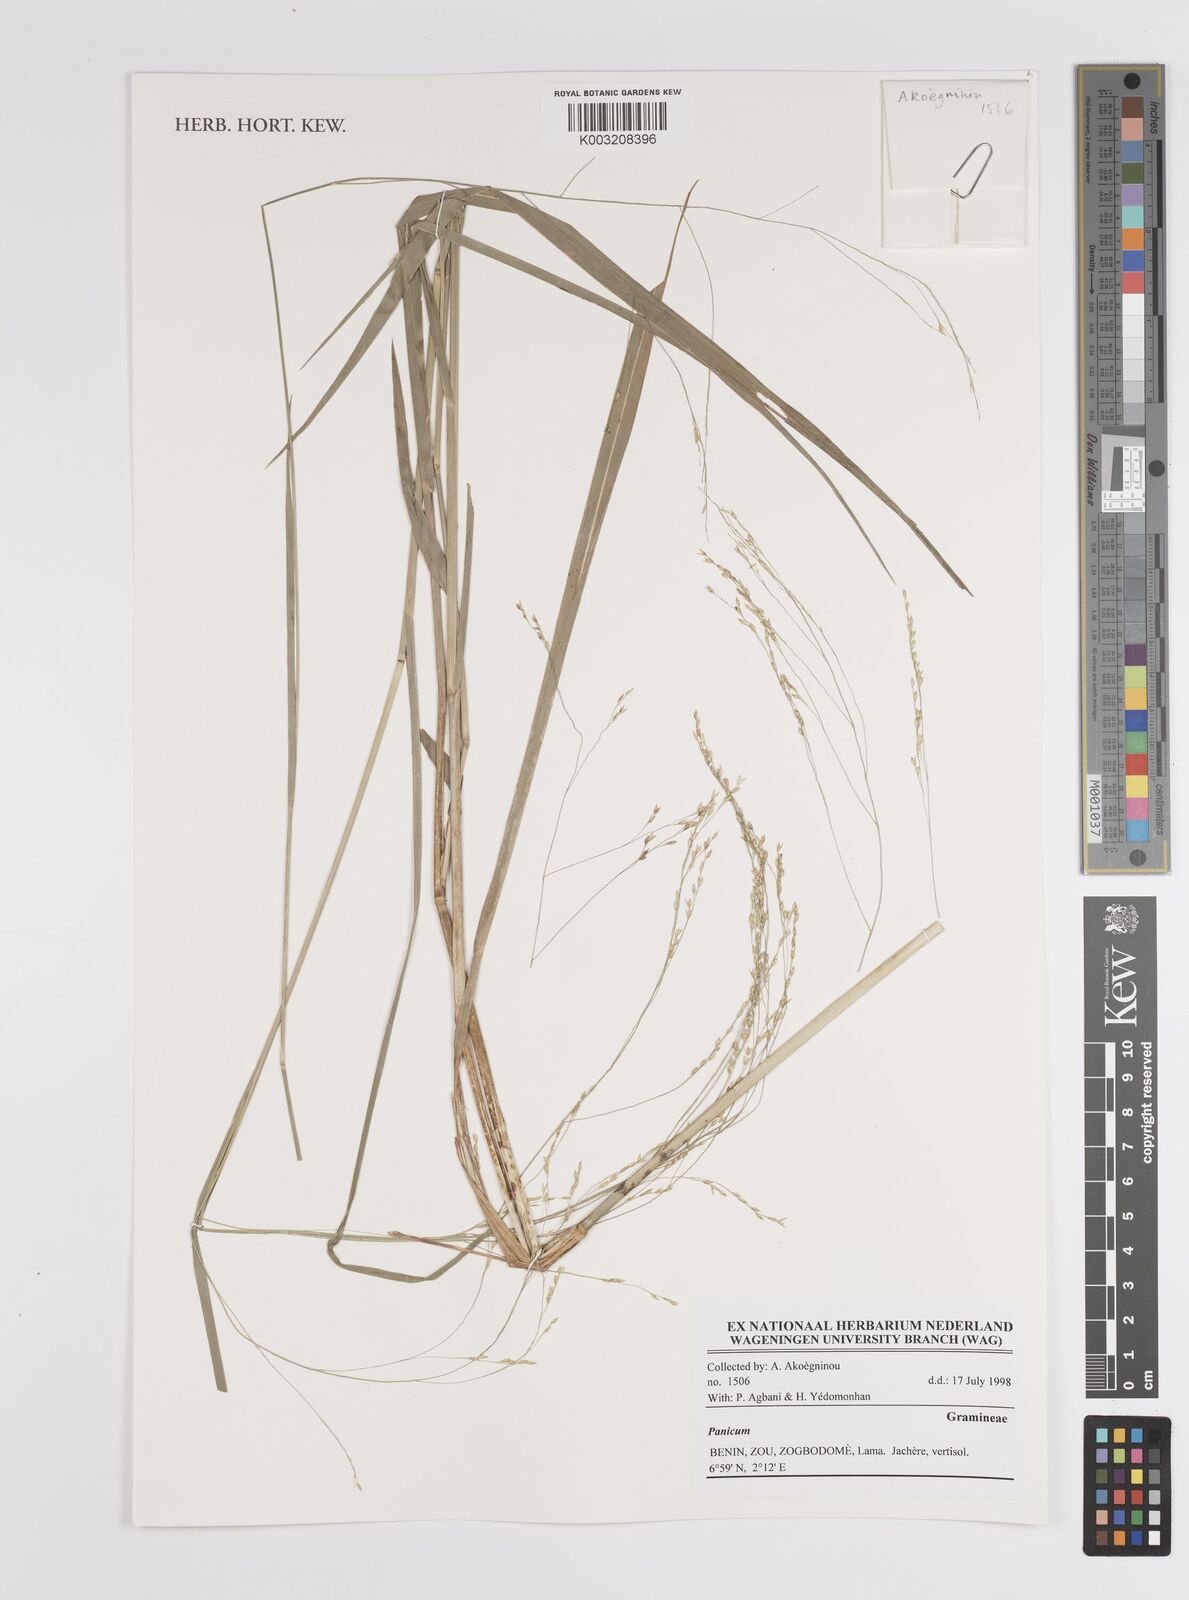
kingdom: Plantae
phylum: Tracheophyta
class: Liliopsida
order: Poales
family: Poaceae
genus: Panicum
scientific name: Panicum
